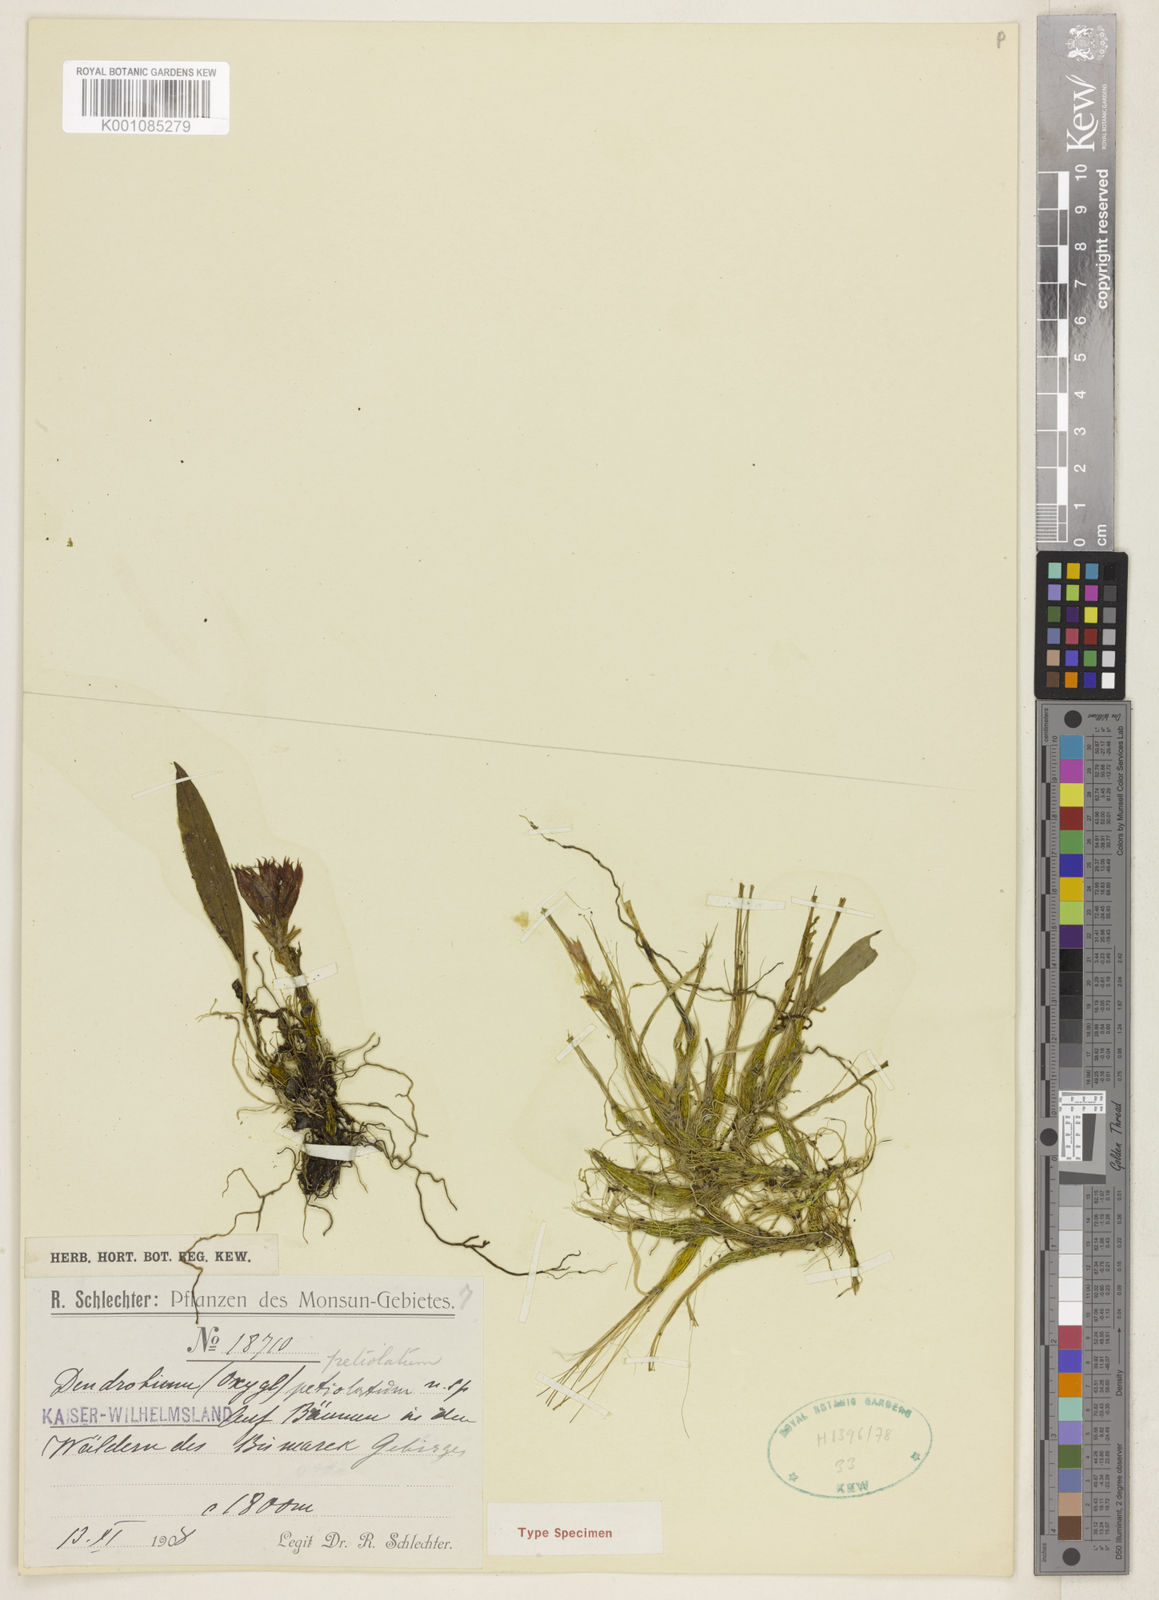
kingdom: Plantae
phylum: Tracheophyta
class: Liliopsida
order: Asparagales
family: Orchidaceae
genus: Dendrobium
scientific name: Dendrobium petiolatum
